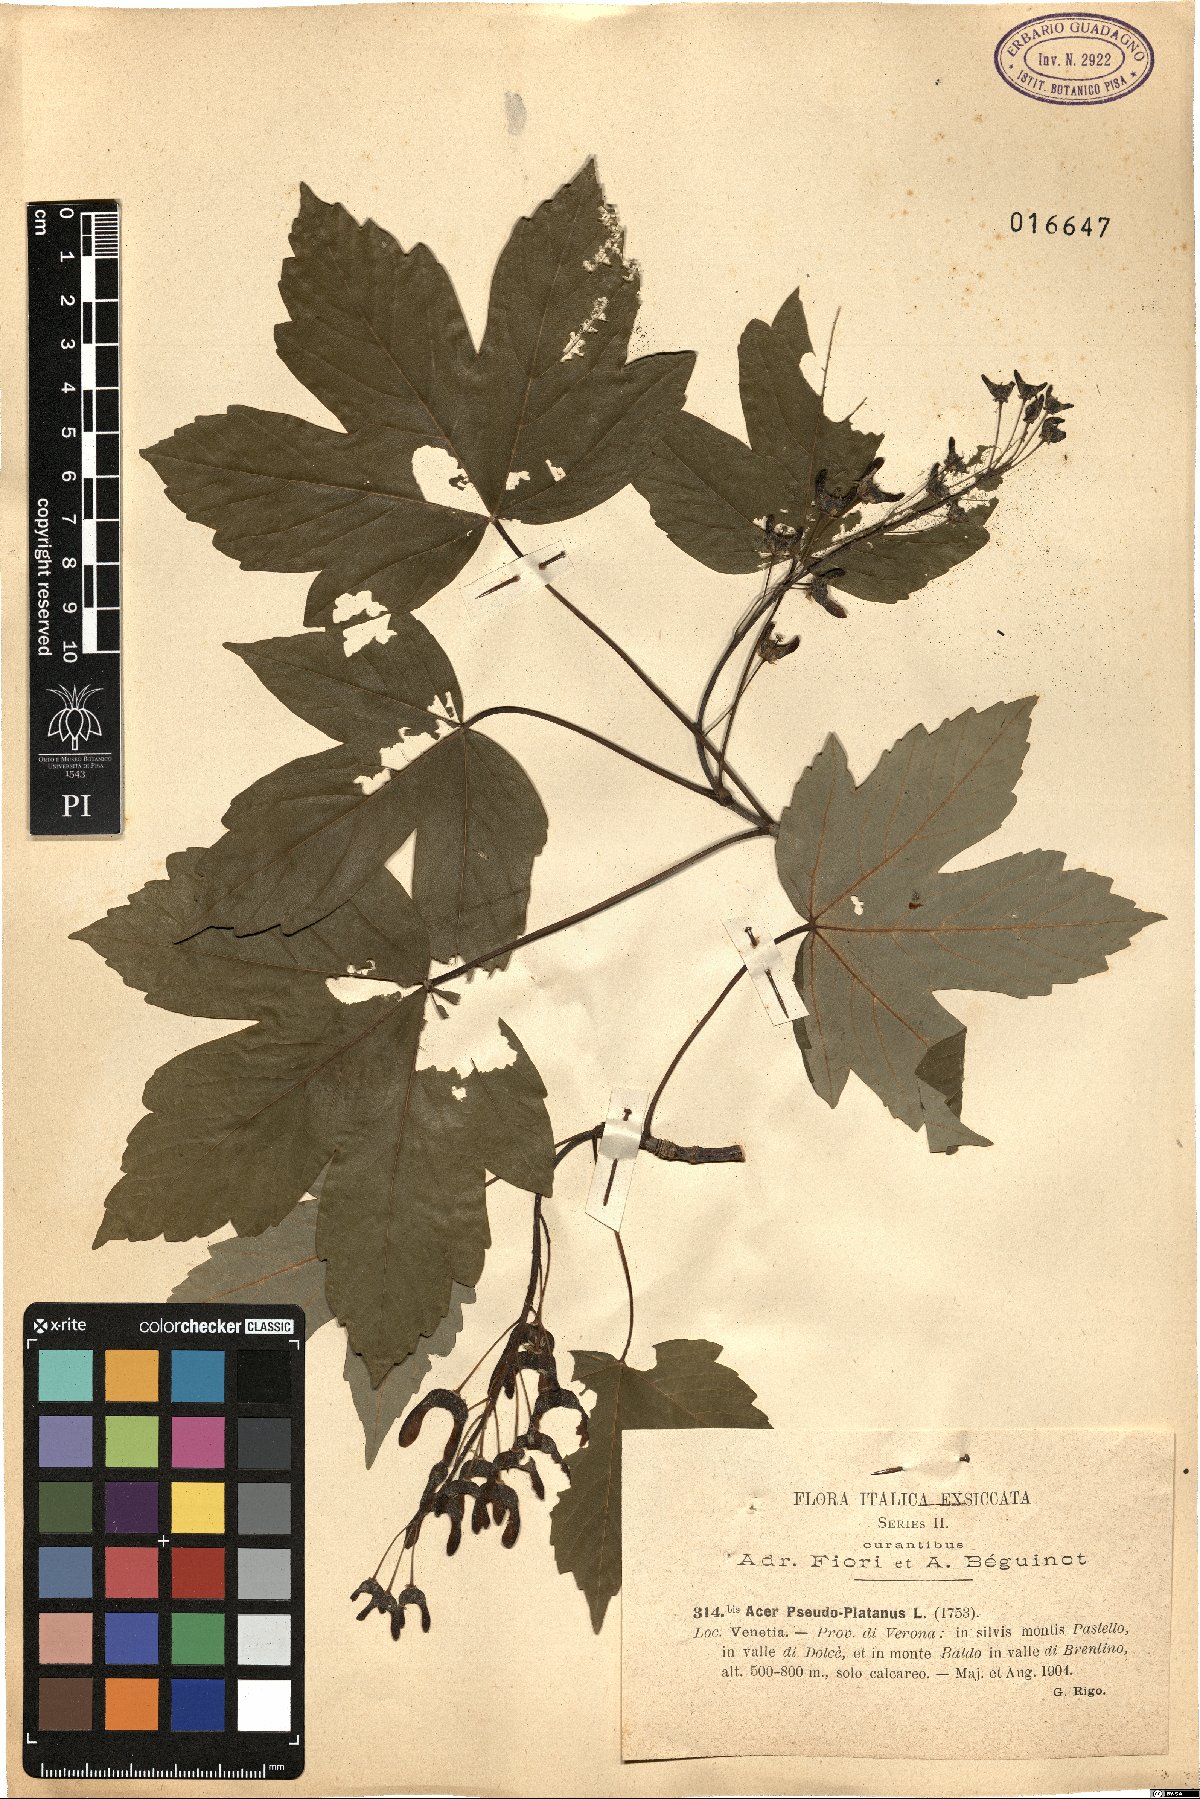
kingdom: Plantae
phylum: Tracheophyta
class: Magnoliopsida
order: Sapindales
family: Sapindaceae
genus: Acer
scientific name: Acer pseudoplatanus
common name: Sycamore
